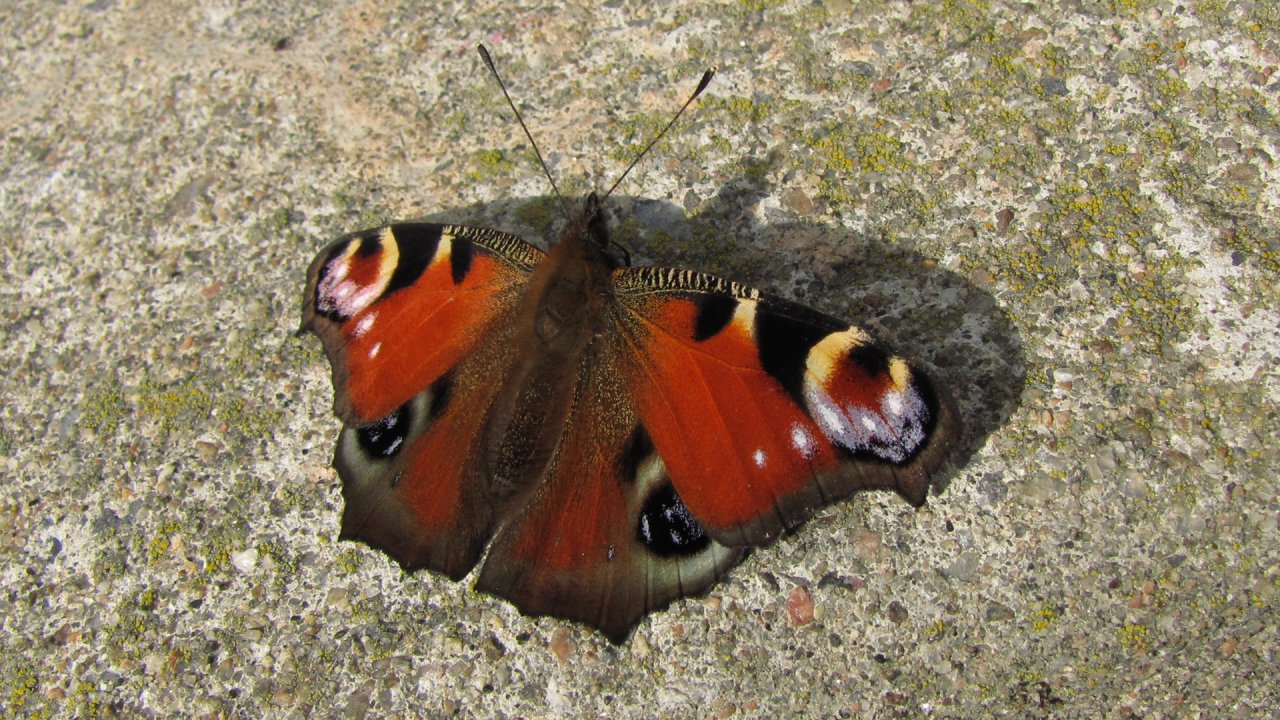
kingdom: Animalia
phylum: Arthropoda
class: Insecta
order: Lepidoptera
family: Nymphalidae
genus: Aglais
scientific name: Aglais io
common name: European Peacock
